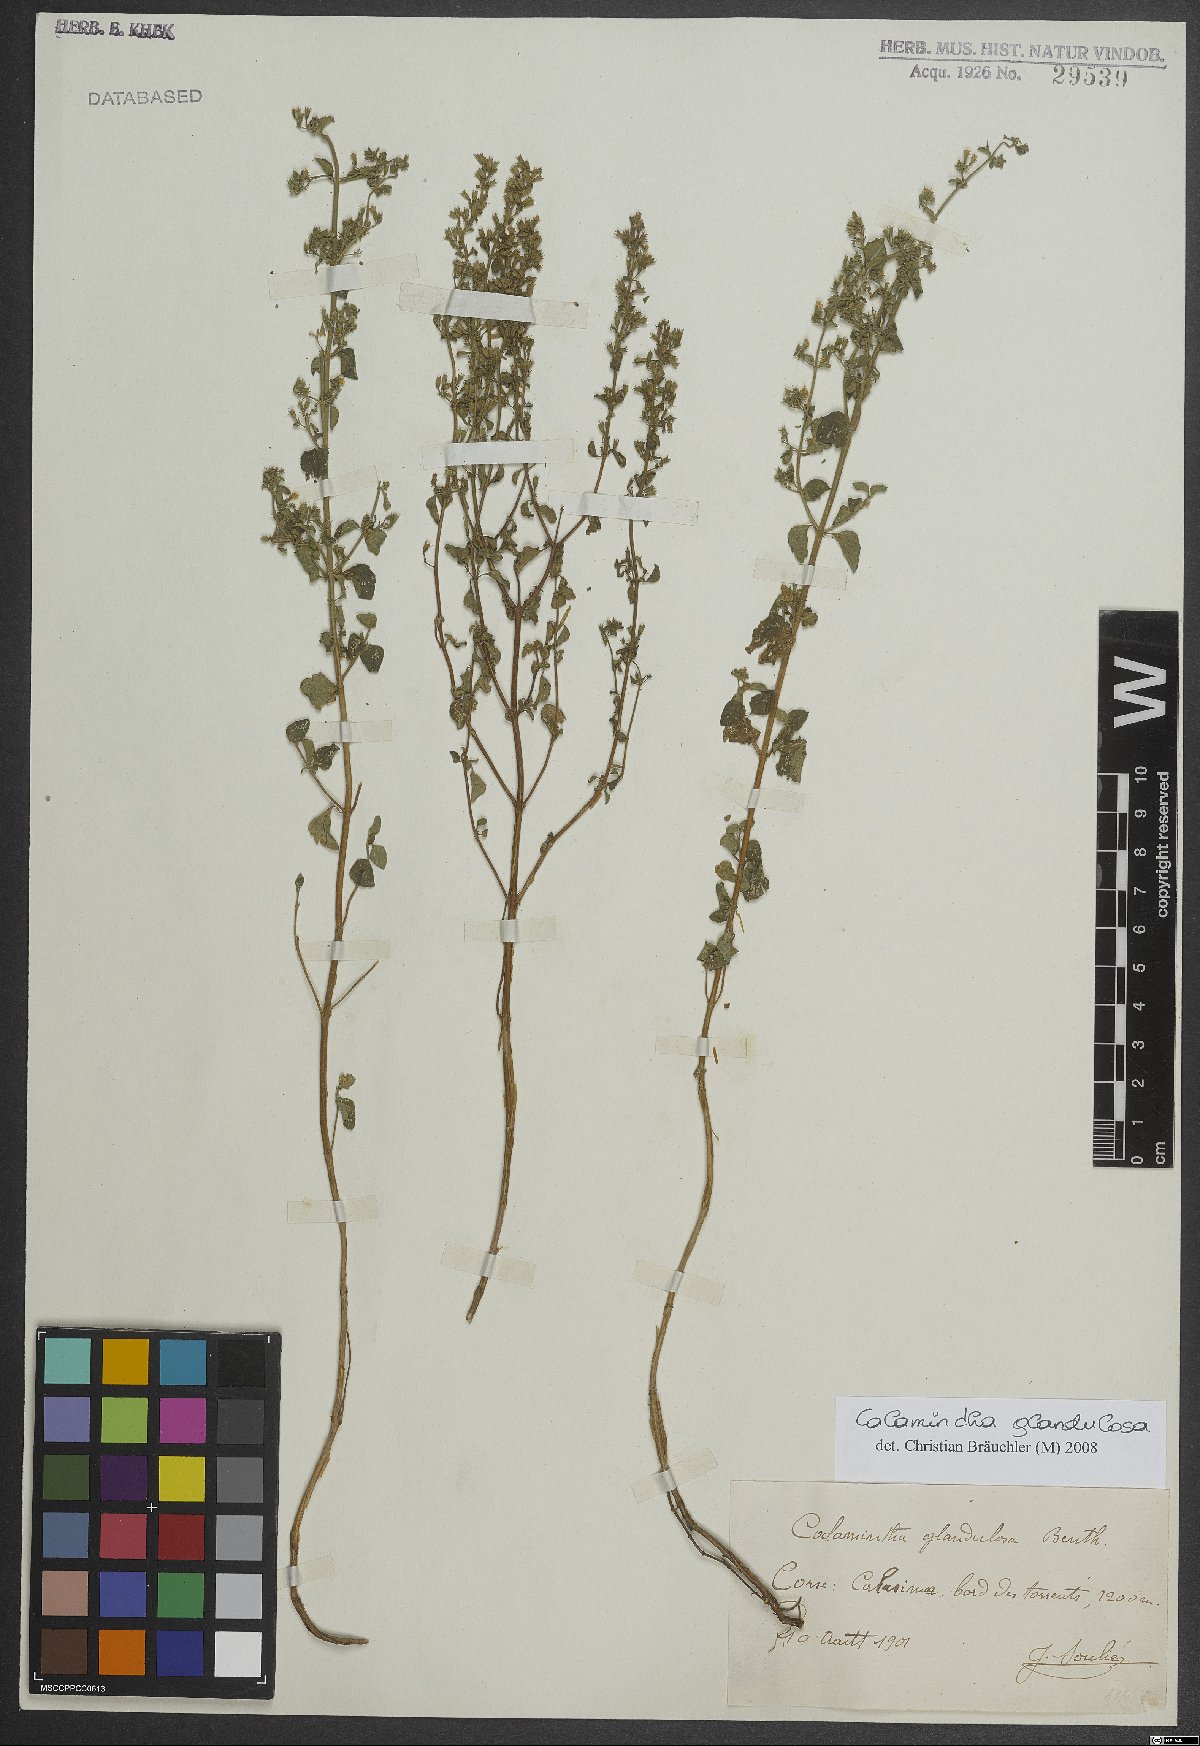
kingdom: Plantae
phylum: Tracheophyta
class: Magnoliopsida
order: Lamiales
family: Lamiaceae
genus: Clinopodium
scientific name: Clinopodium nepeta
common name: Lesser calamint
